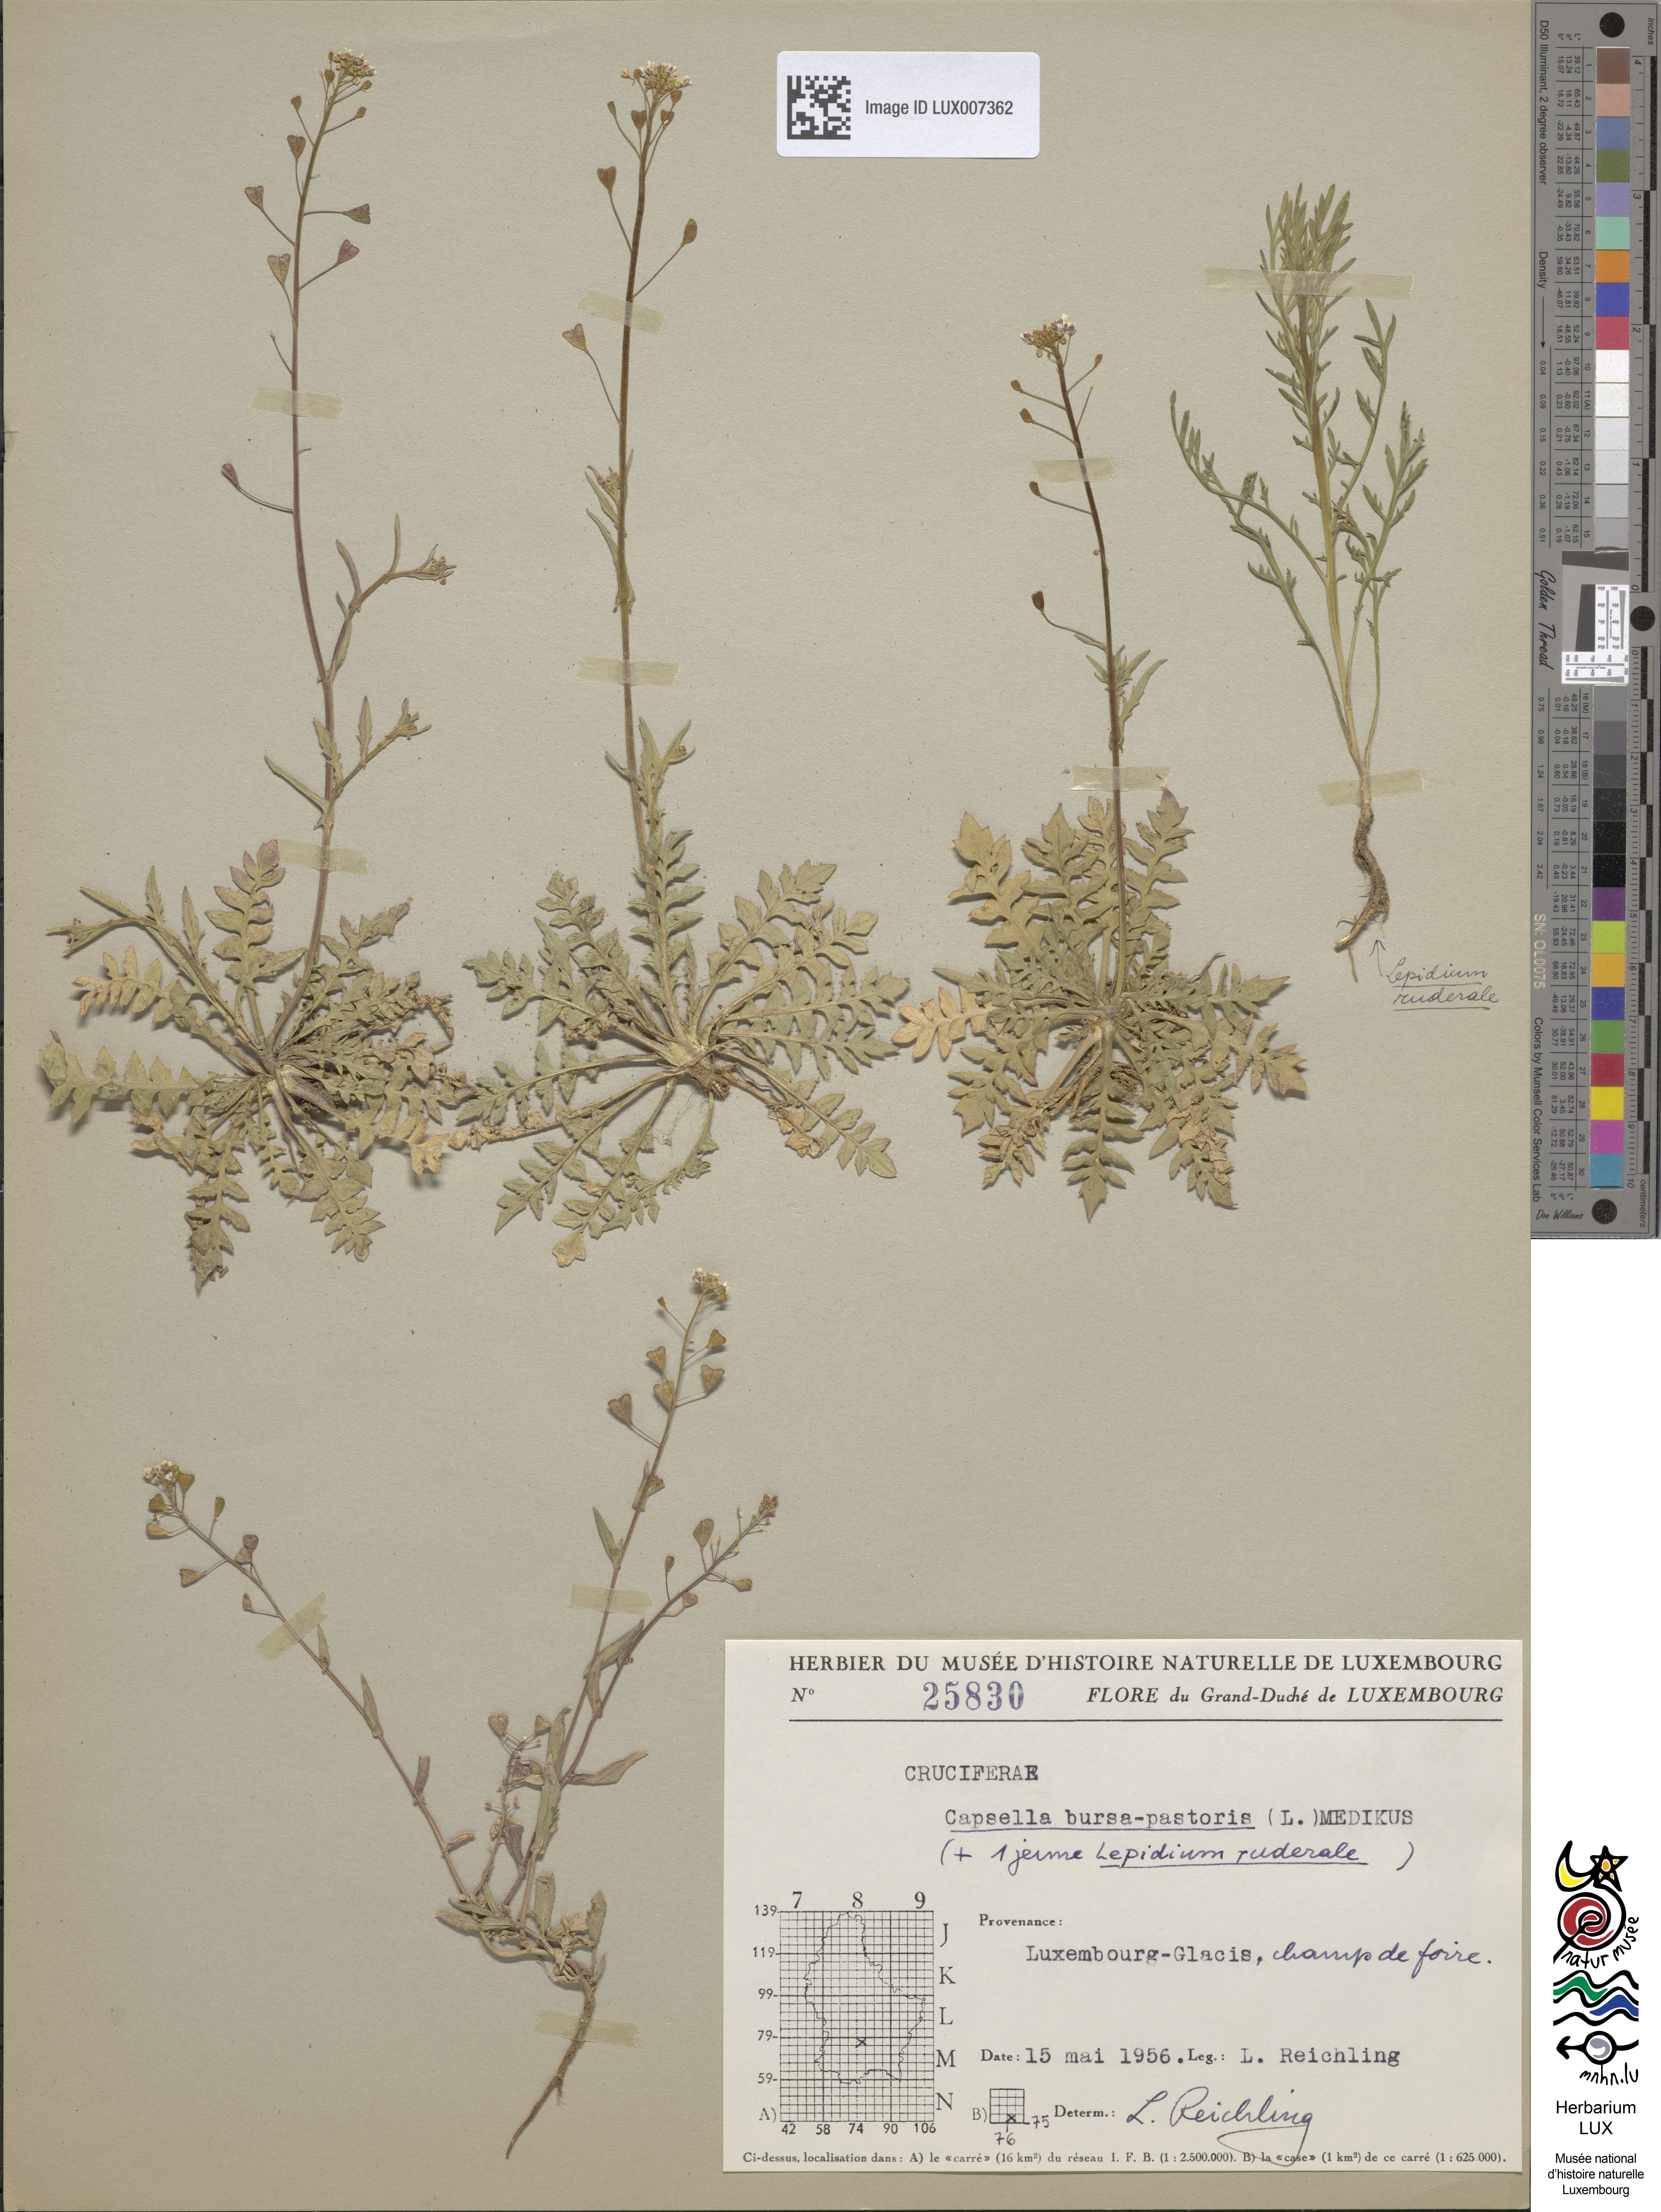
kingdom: Plantae
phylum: Tracheophyta
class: Magnoliopsida
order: Brassicales
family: Brassicaceae
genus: Capsella
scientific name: Capsella bursa-pastoris
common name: Shepherd's purse
